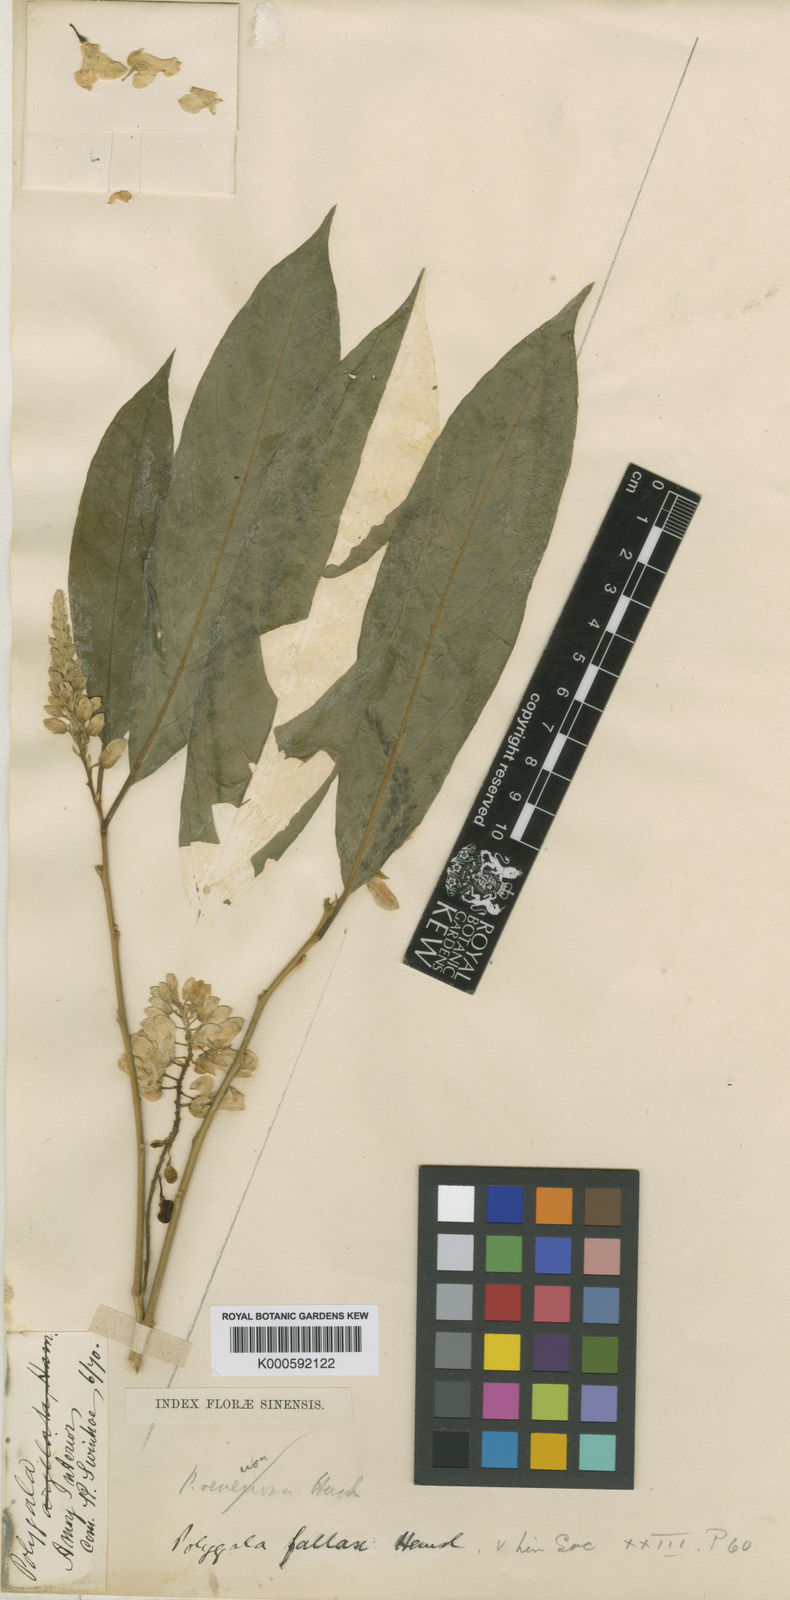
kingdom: Plantae
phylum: Tracheophyta
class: Magnoliopsida
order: Fabales
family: Polygalaceae
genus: Polygala
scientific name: Polygala forbesii
